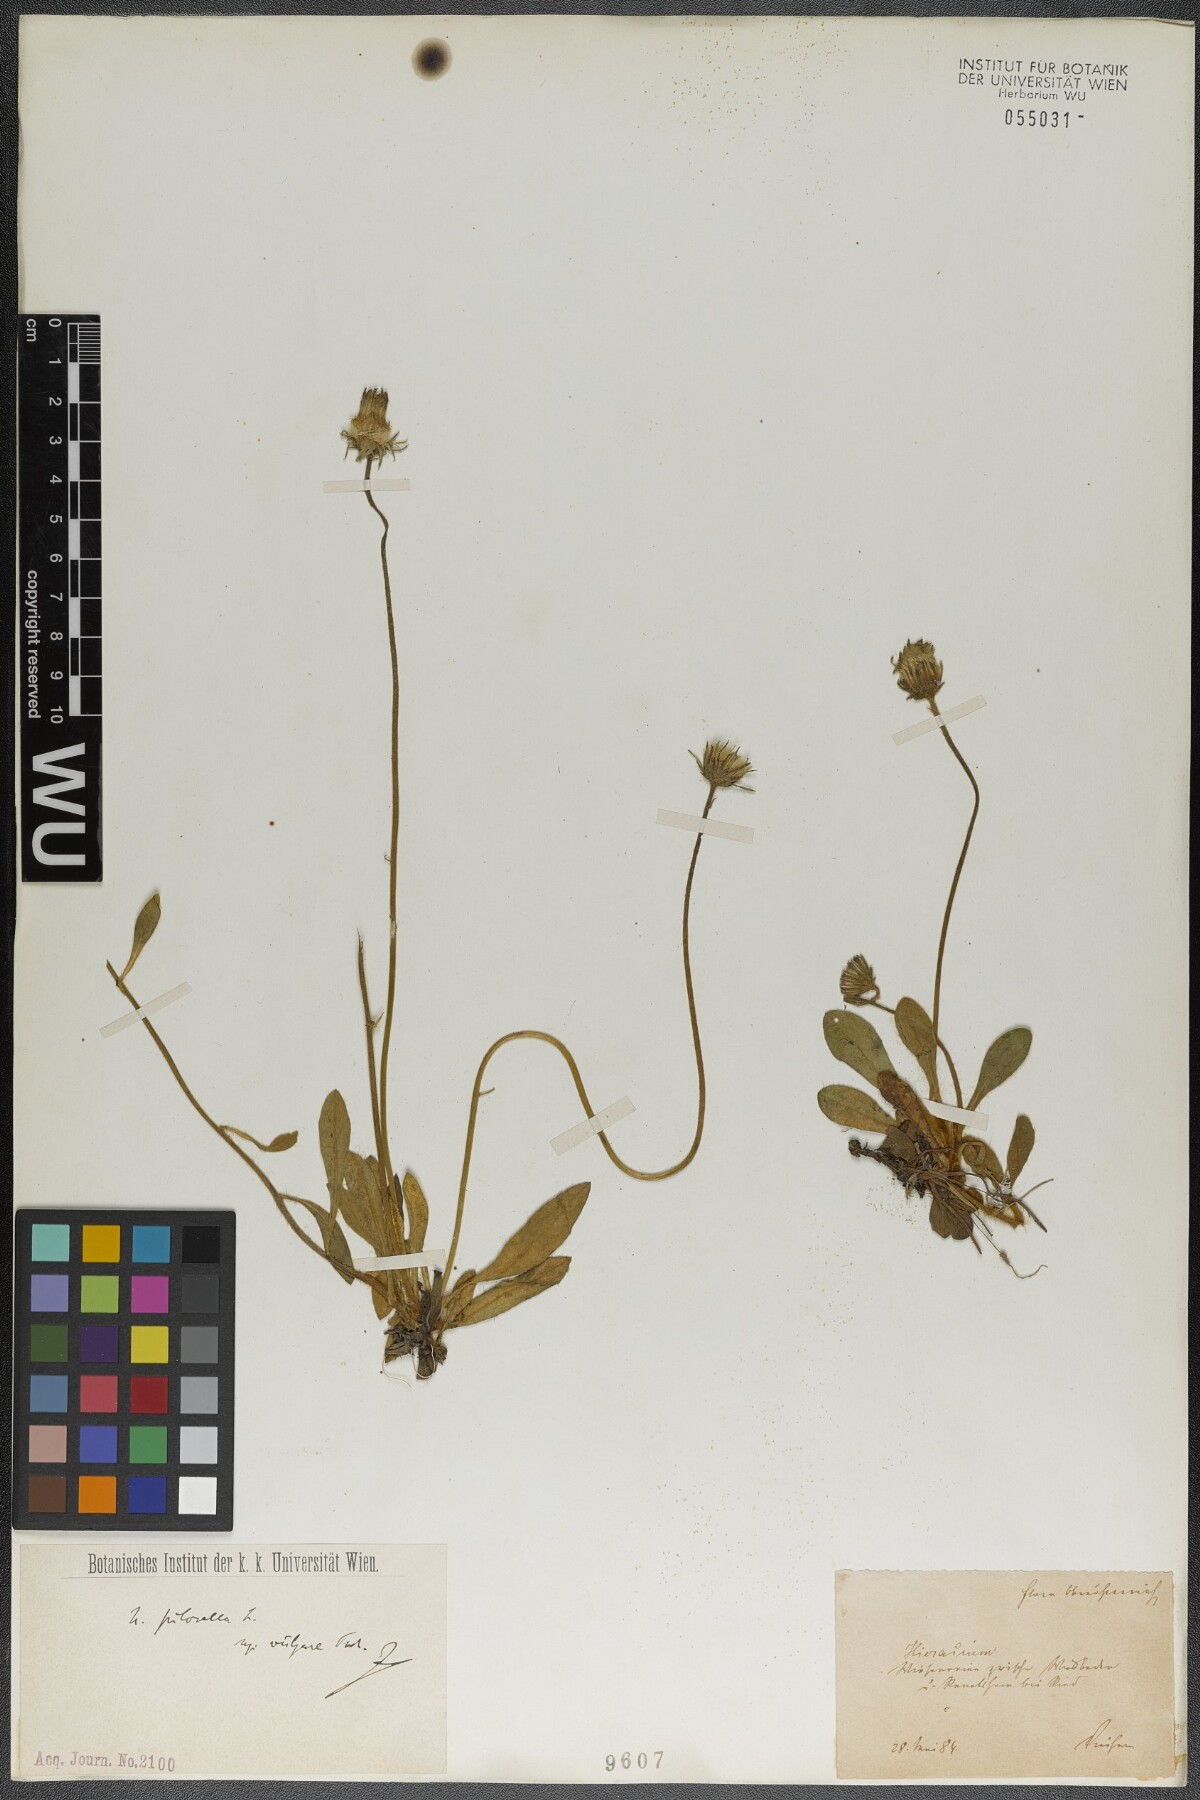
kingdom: Plantae
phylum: Tracheophyta
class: Magnoliopsida
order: Asterales
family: Asteraceae
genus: Pilosella
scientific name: Pilosella officinarum
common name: Mouse-ear hawkweed
